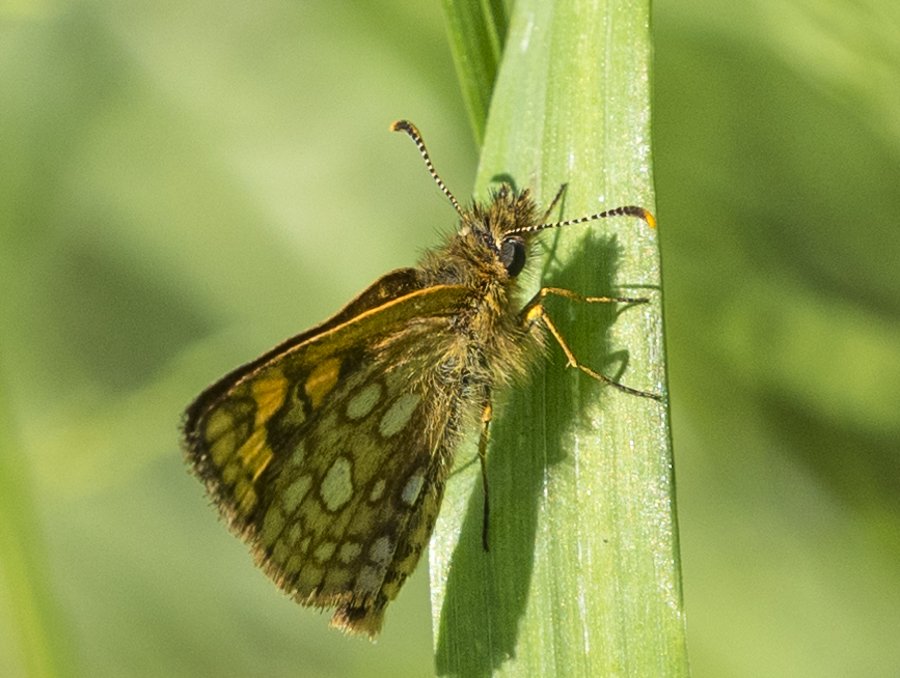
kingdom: Animalia
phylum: Arthropoda
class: Insecta
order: Lepidoptera
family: Hesperiidae
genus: Carterocephalus
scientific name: Carterocephalus palaemon
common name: Chequered Skipper
